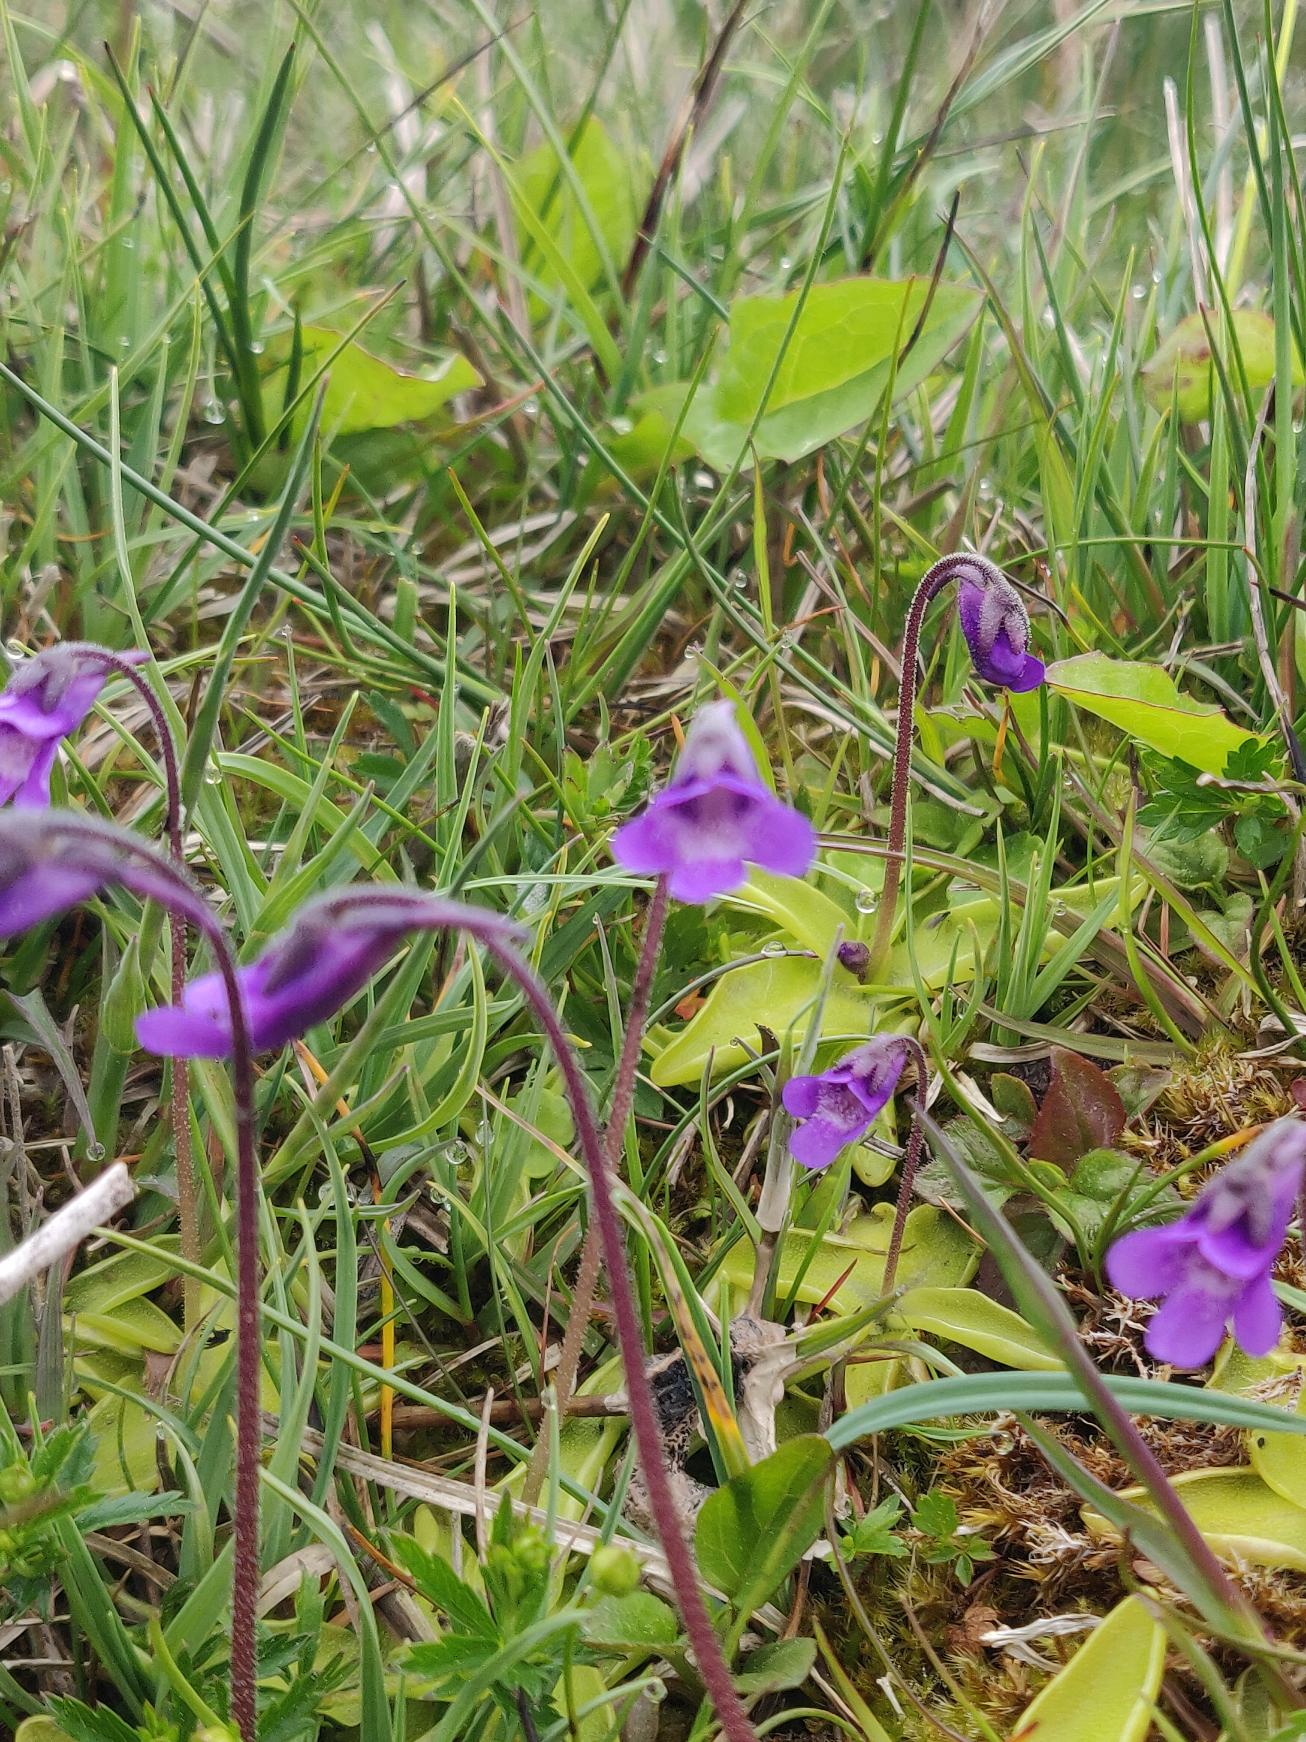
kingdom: Plantae
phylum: Tracheophyta
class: Magnoliopsida
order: Lamiales
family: Lentibulariaceae
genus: Pinguicula
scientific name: Pinguicula vulgaris
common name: Vibefedt
